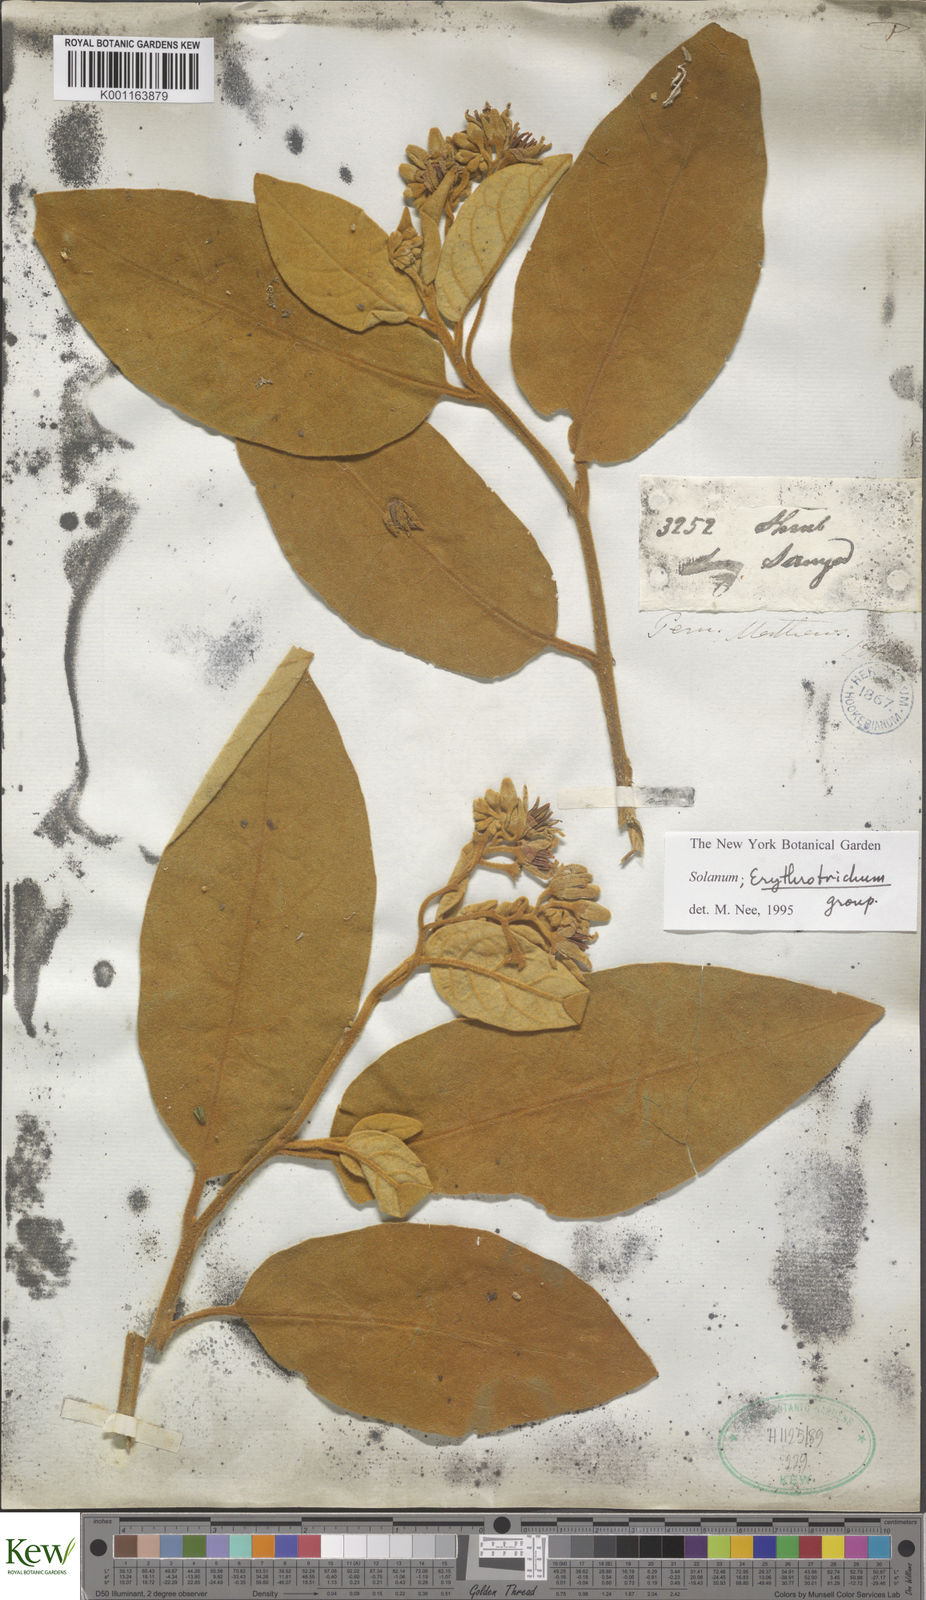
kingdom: Plantae
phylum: Tracheophyta
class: Magnoliopsida
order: Solanales
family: Solanaceae
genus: Solanum
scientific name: Solanum erythrotrichum
